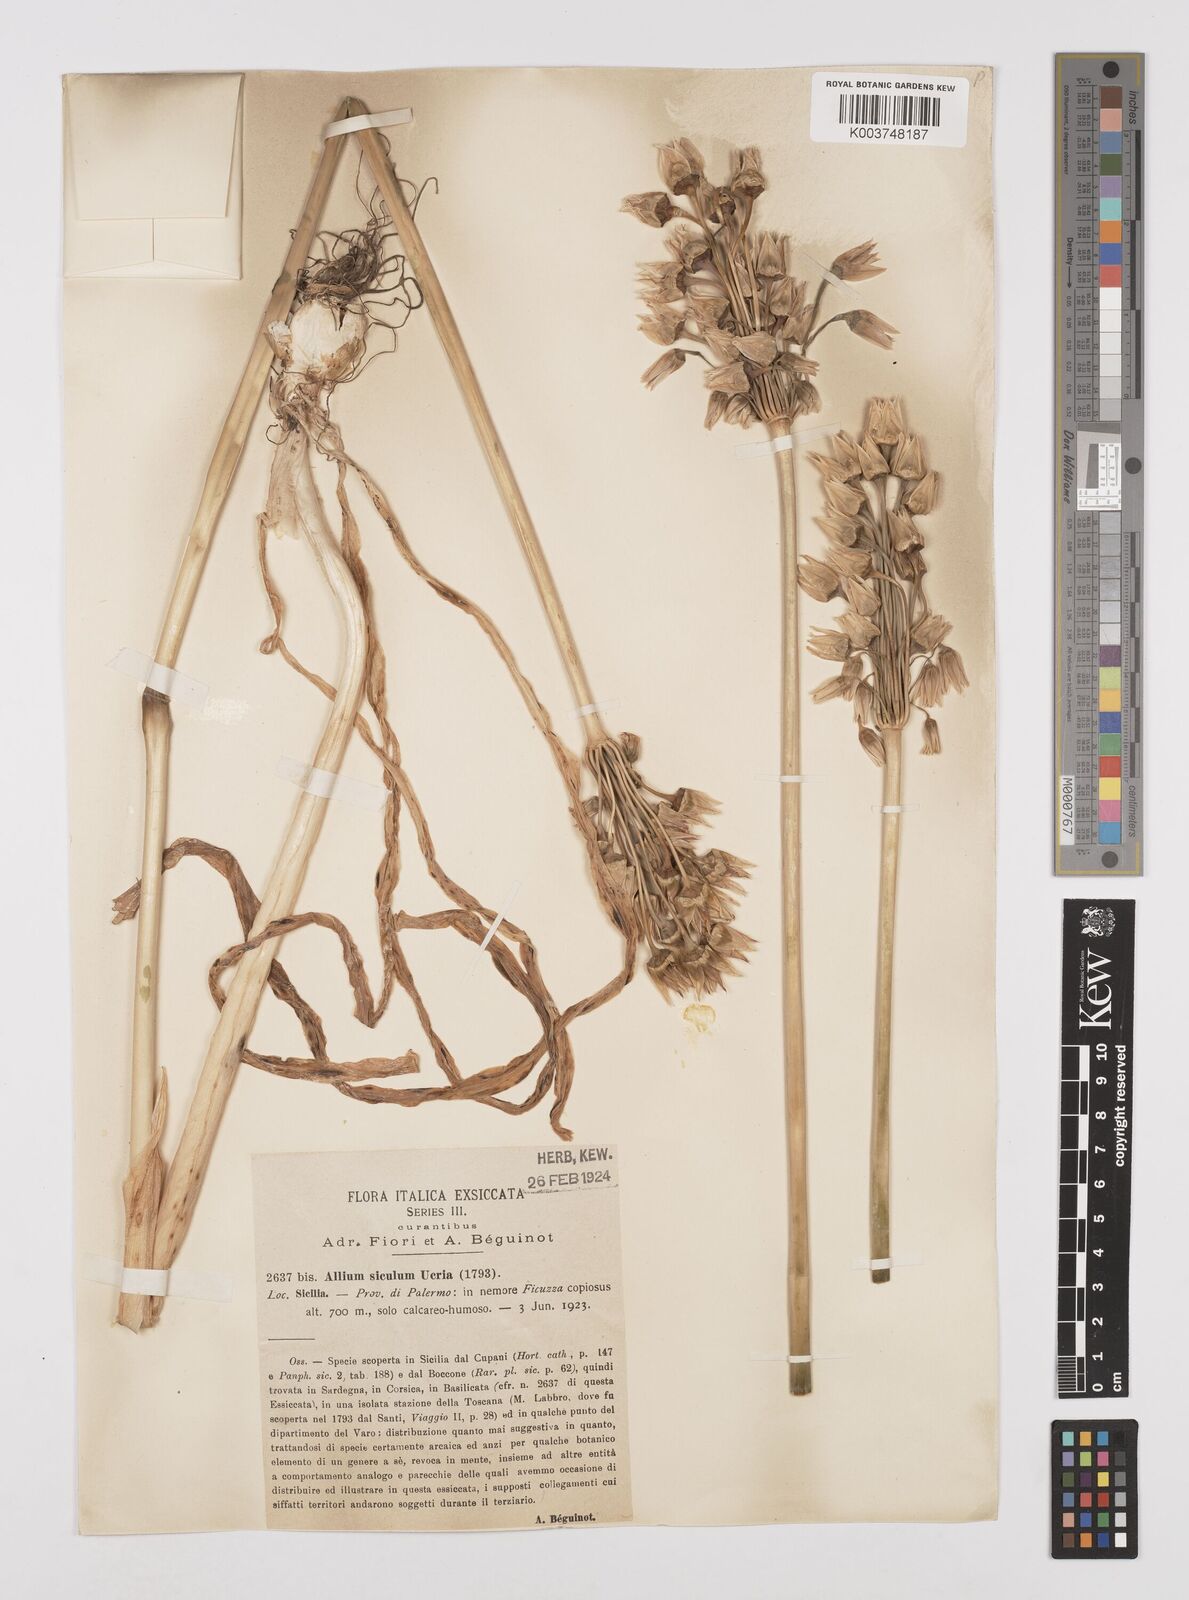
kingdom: Plantae
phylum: Tracheophyta
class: Liliopsida
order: Asparagales
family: Amaryllidaceae
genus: Allium
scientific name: Allium siculum
